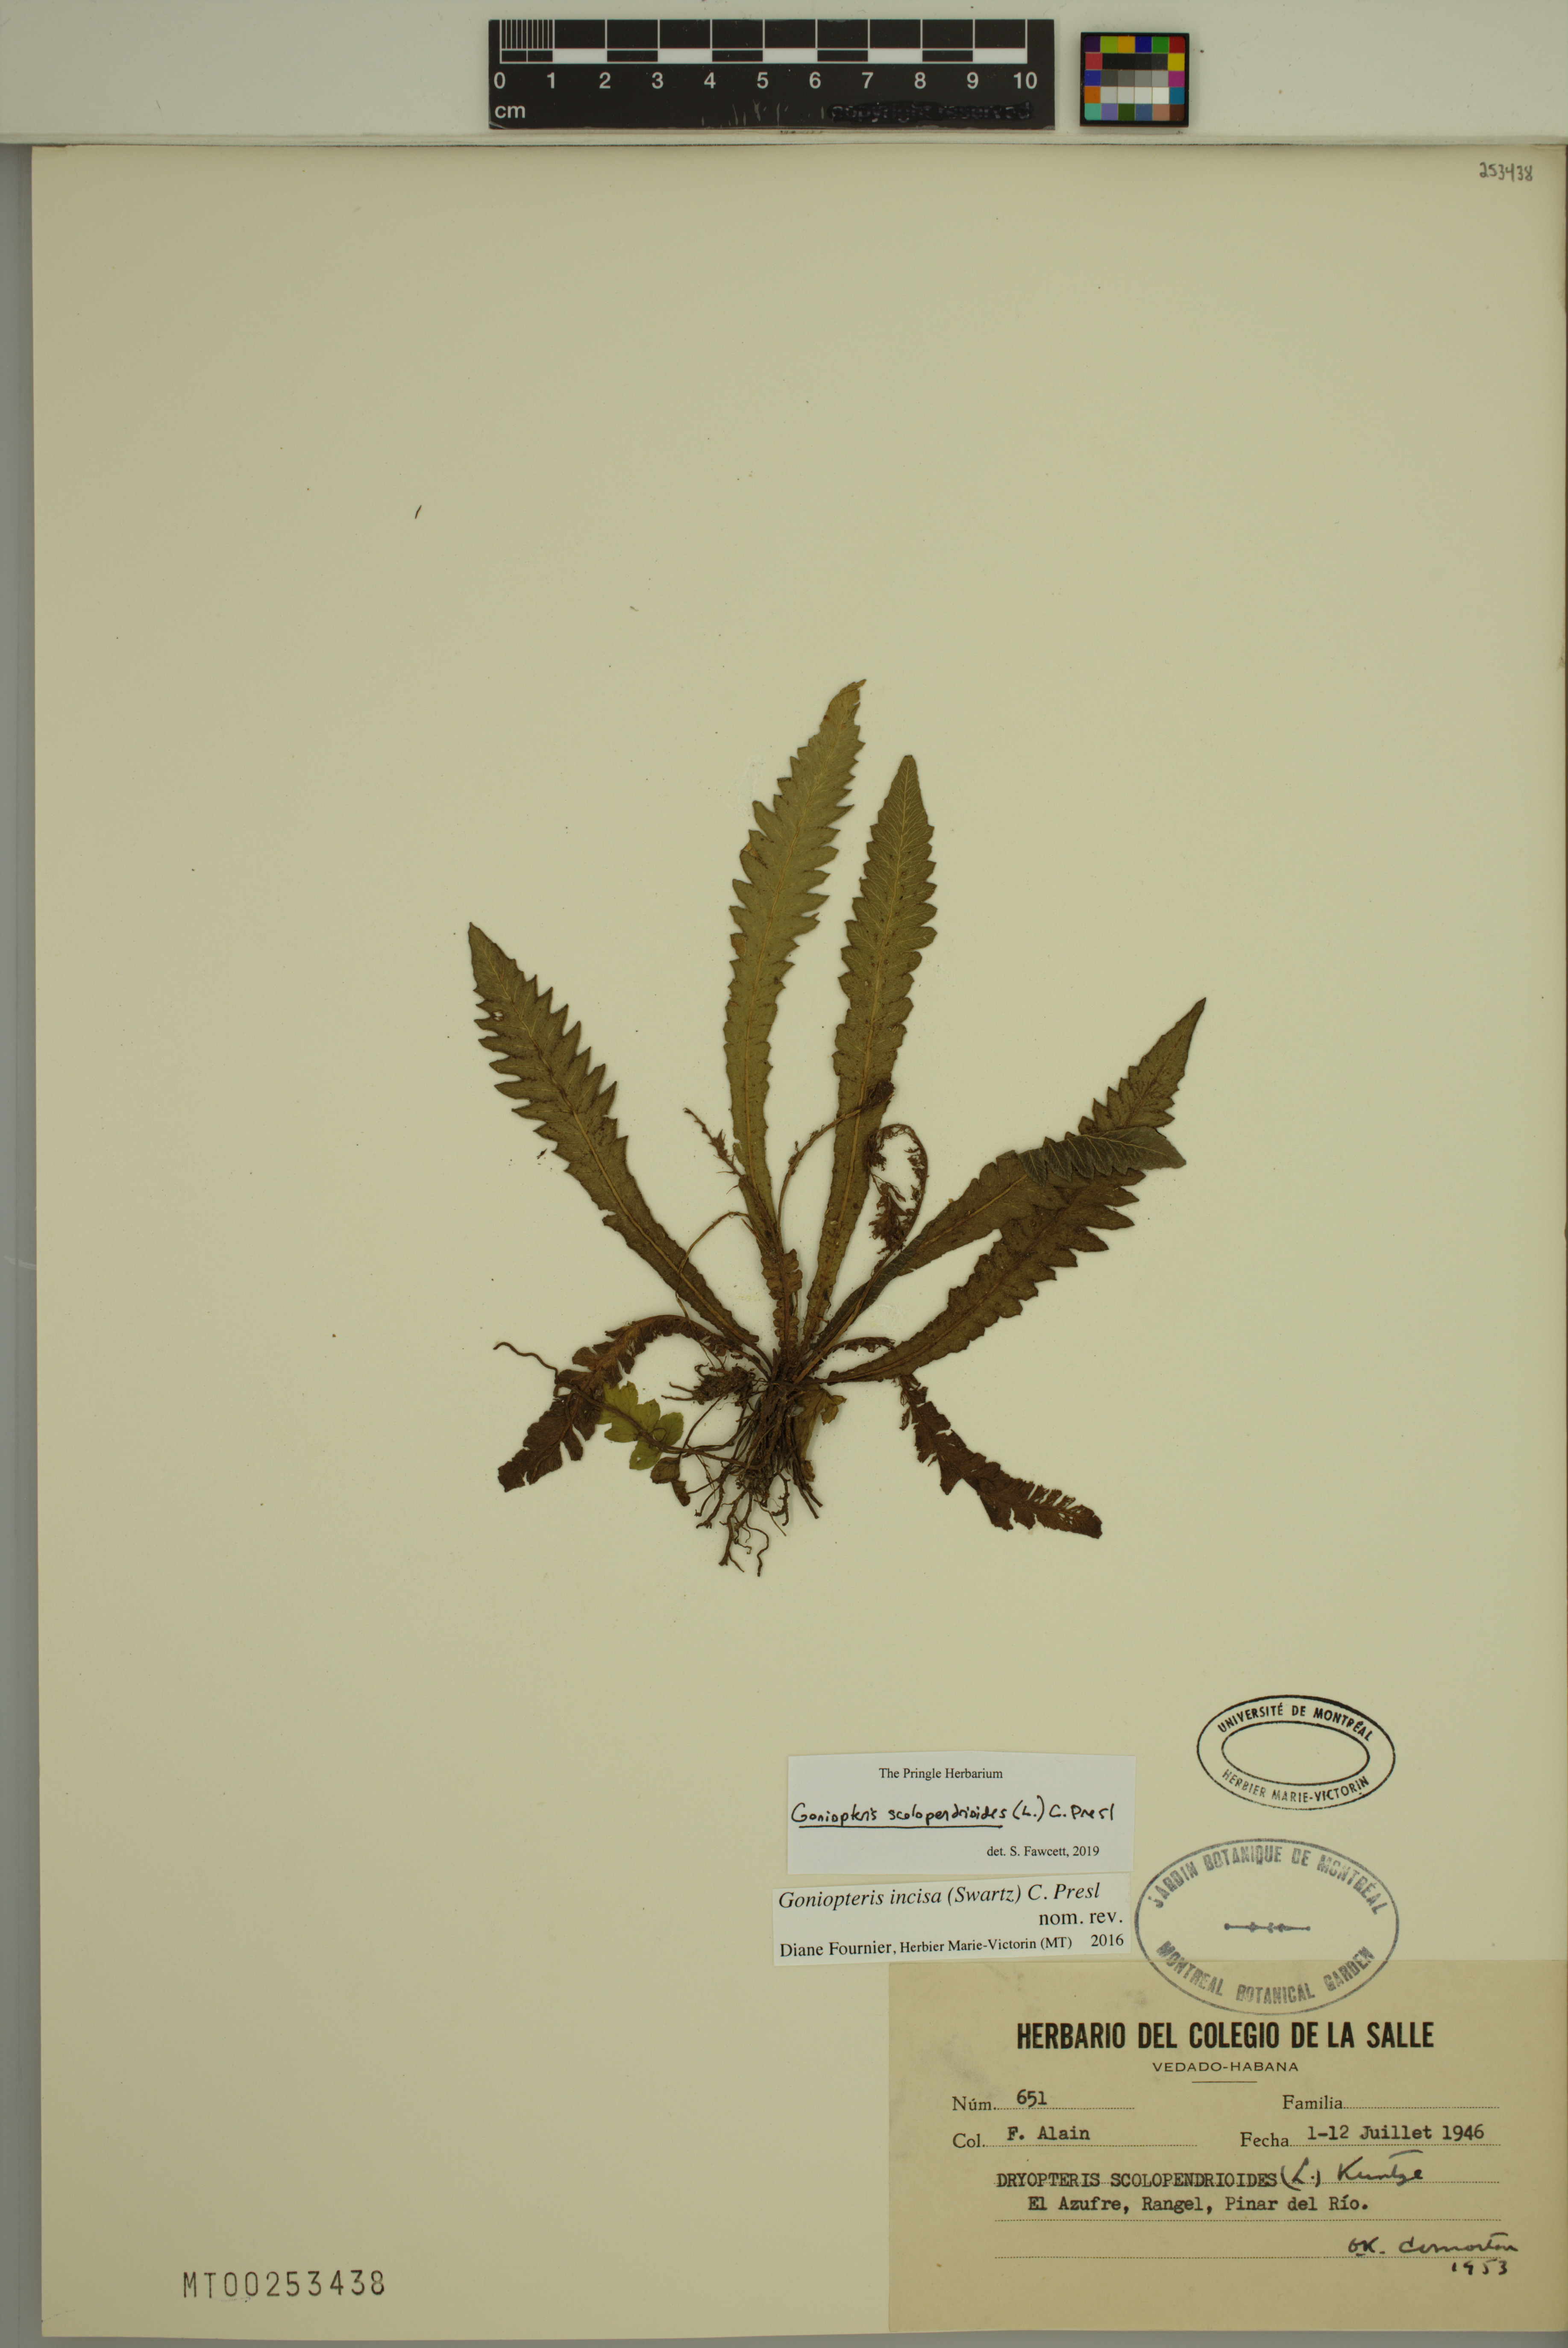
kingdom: Plantae
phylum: Tracheophyta
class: Polypodiopsida
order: Polypodiales
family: Thelypteridaceae
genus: Goniopteris
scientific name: Goniopteris scolopendrioides
